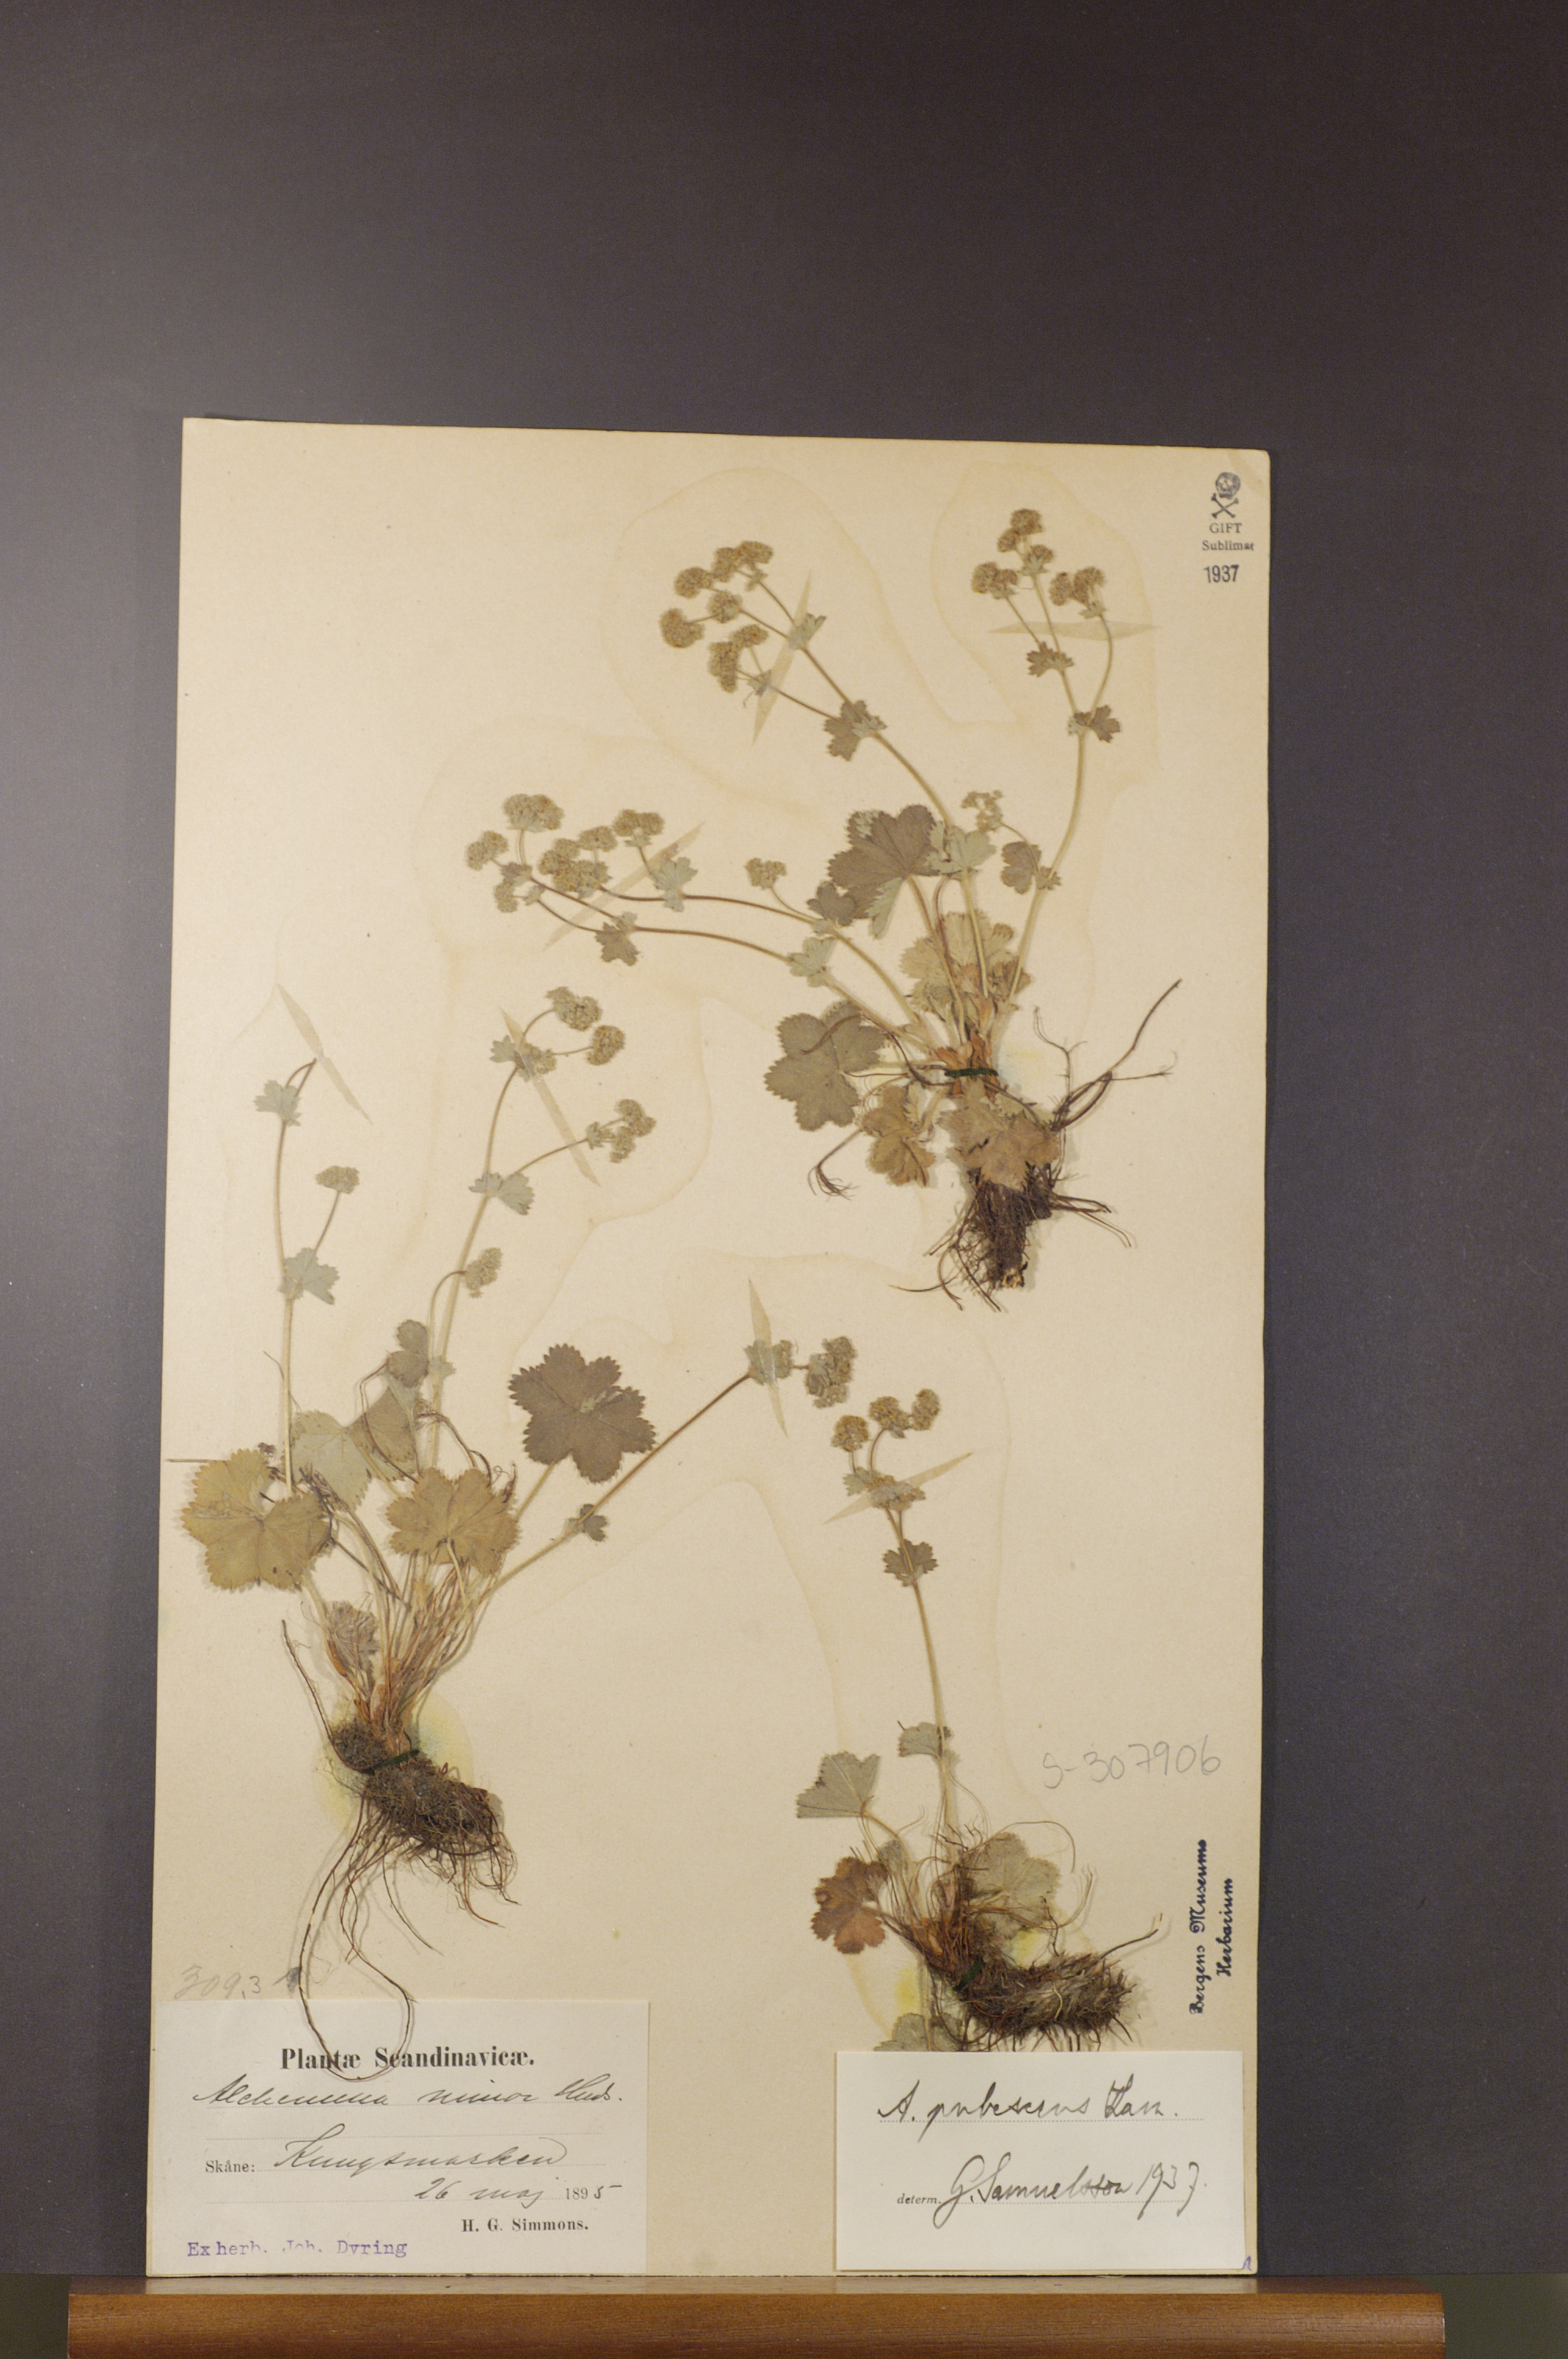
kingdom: Plantae
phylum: Tracheophyta
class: Magnoliopsida
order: Rosales
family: Rosaceae
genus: Alchemilla
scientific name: Alchemilla glaucescens
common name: Silky lady's mantle
